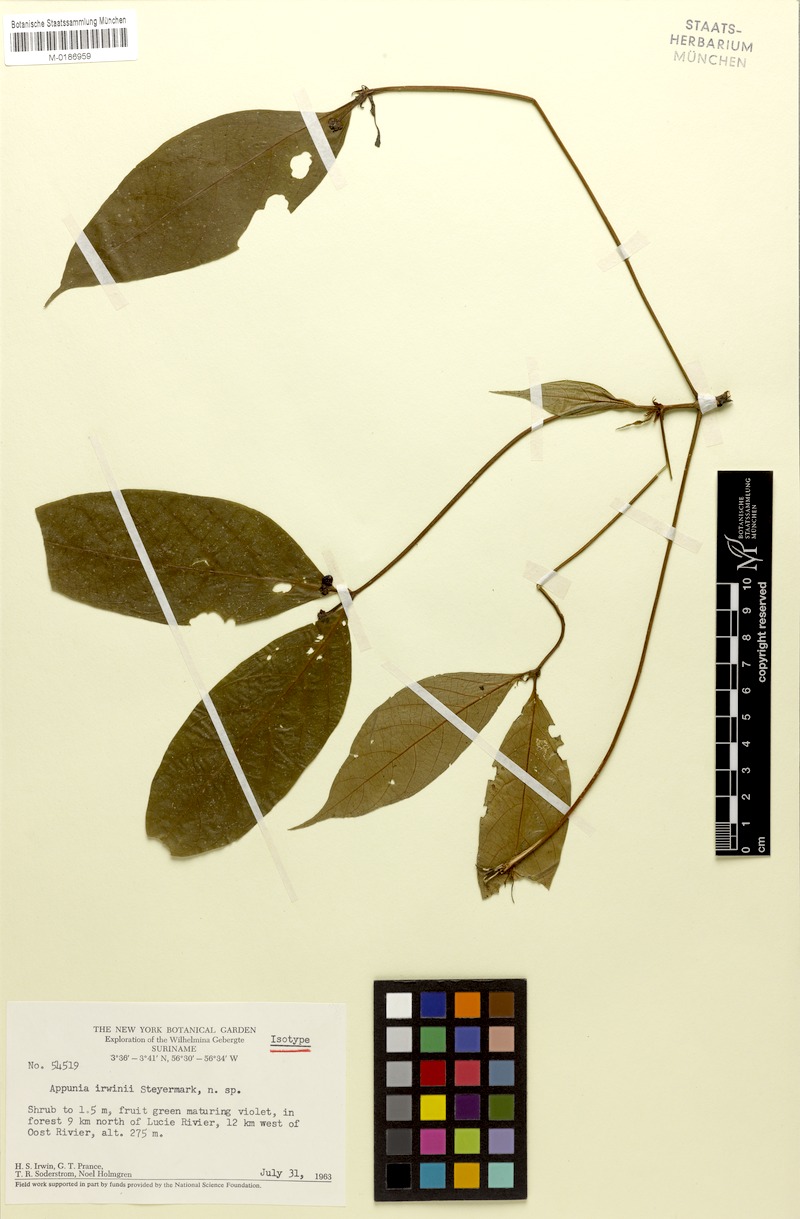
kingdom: Plantae
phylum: Tracheophyta
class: Magnoliopsida
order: Gentianales
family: Rubiaceae
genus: Appunia
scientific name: Appunia morindoides
